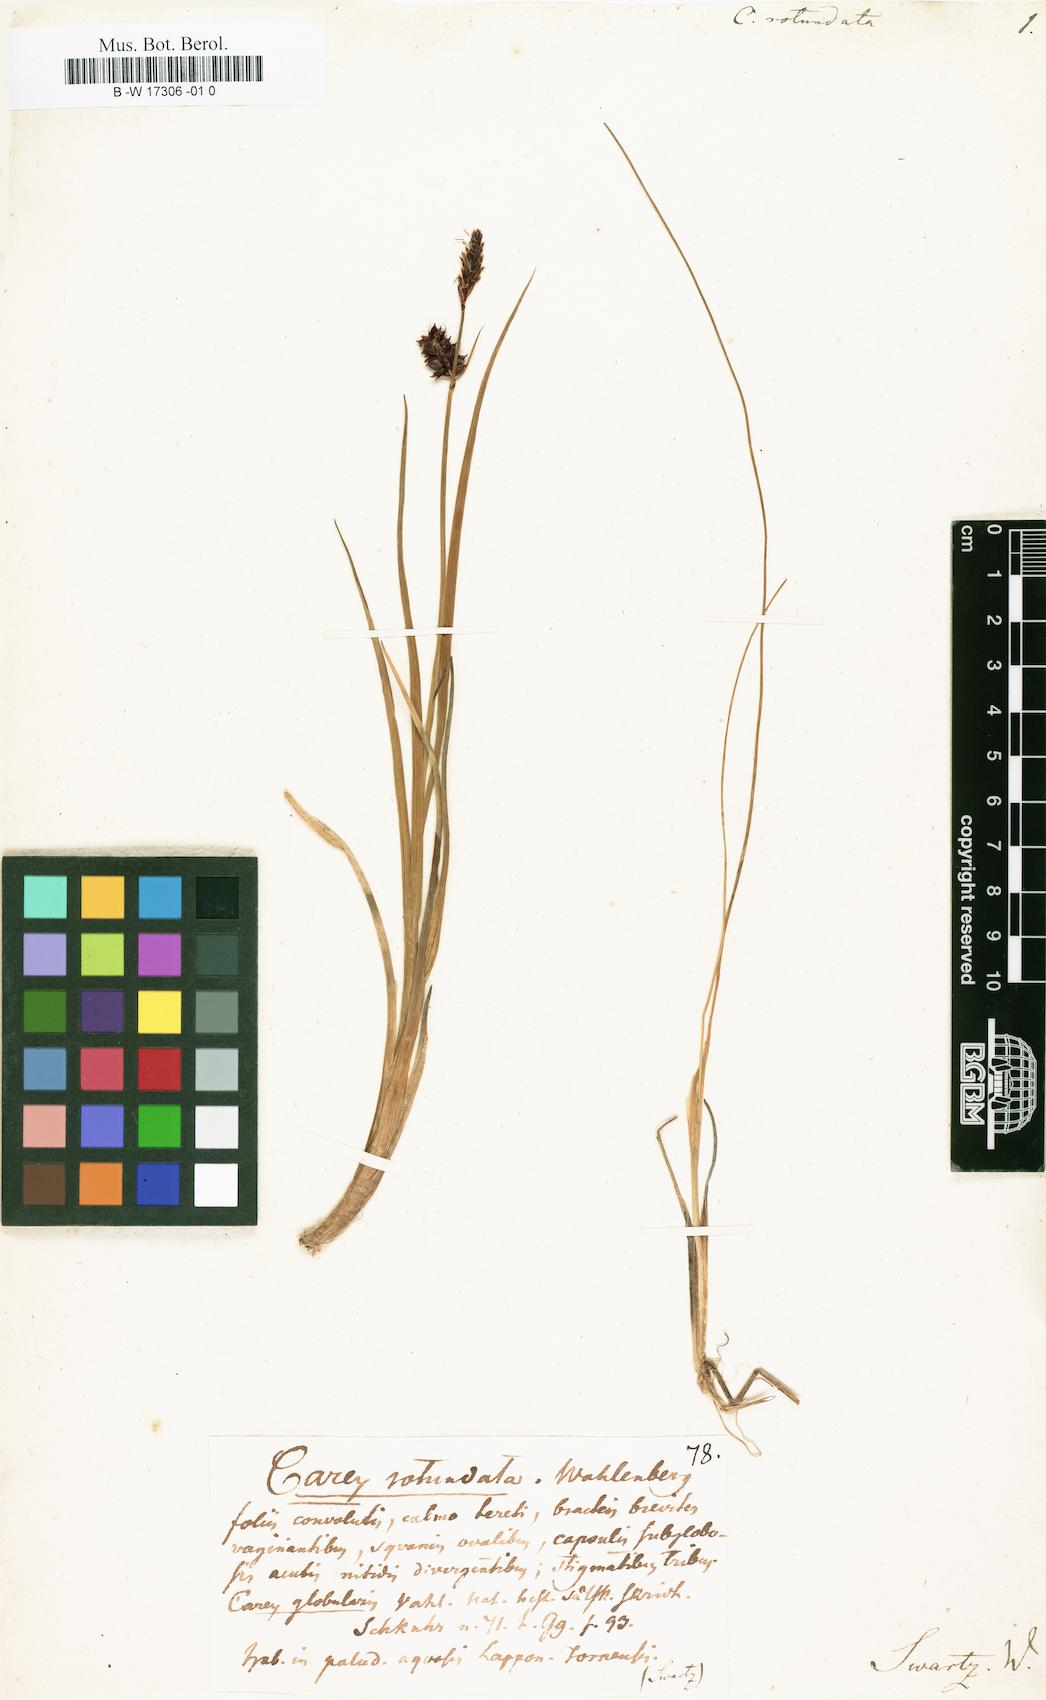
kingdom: Plantae
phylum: Tracheophyta
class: Liliopsida
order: Poales
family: Cyperaceae
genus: Carex
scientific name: Carex rotundata
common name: Round-fruited sedge
